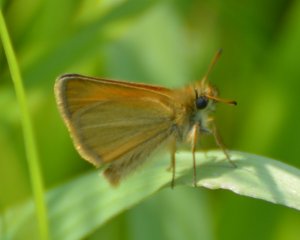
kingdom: Animalia
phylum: Arthropoda
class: Insecta
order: Lepidoptera
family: Hesperiidae
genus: Thymelicus
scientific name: Thymelicus lineola
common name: European Skipper
